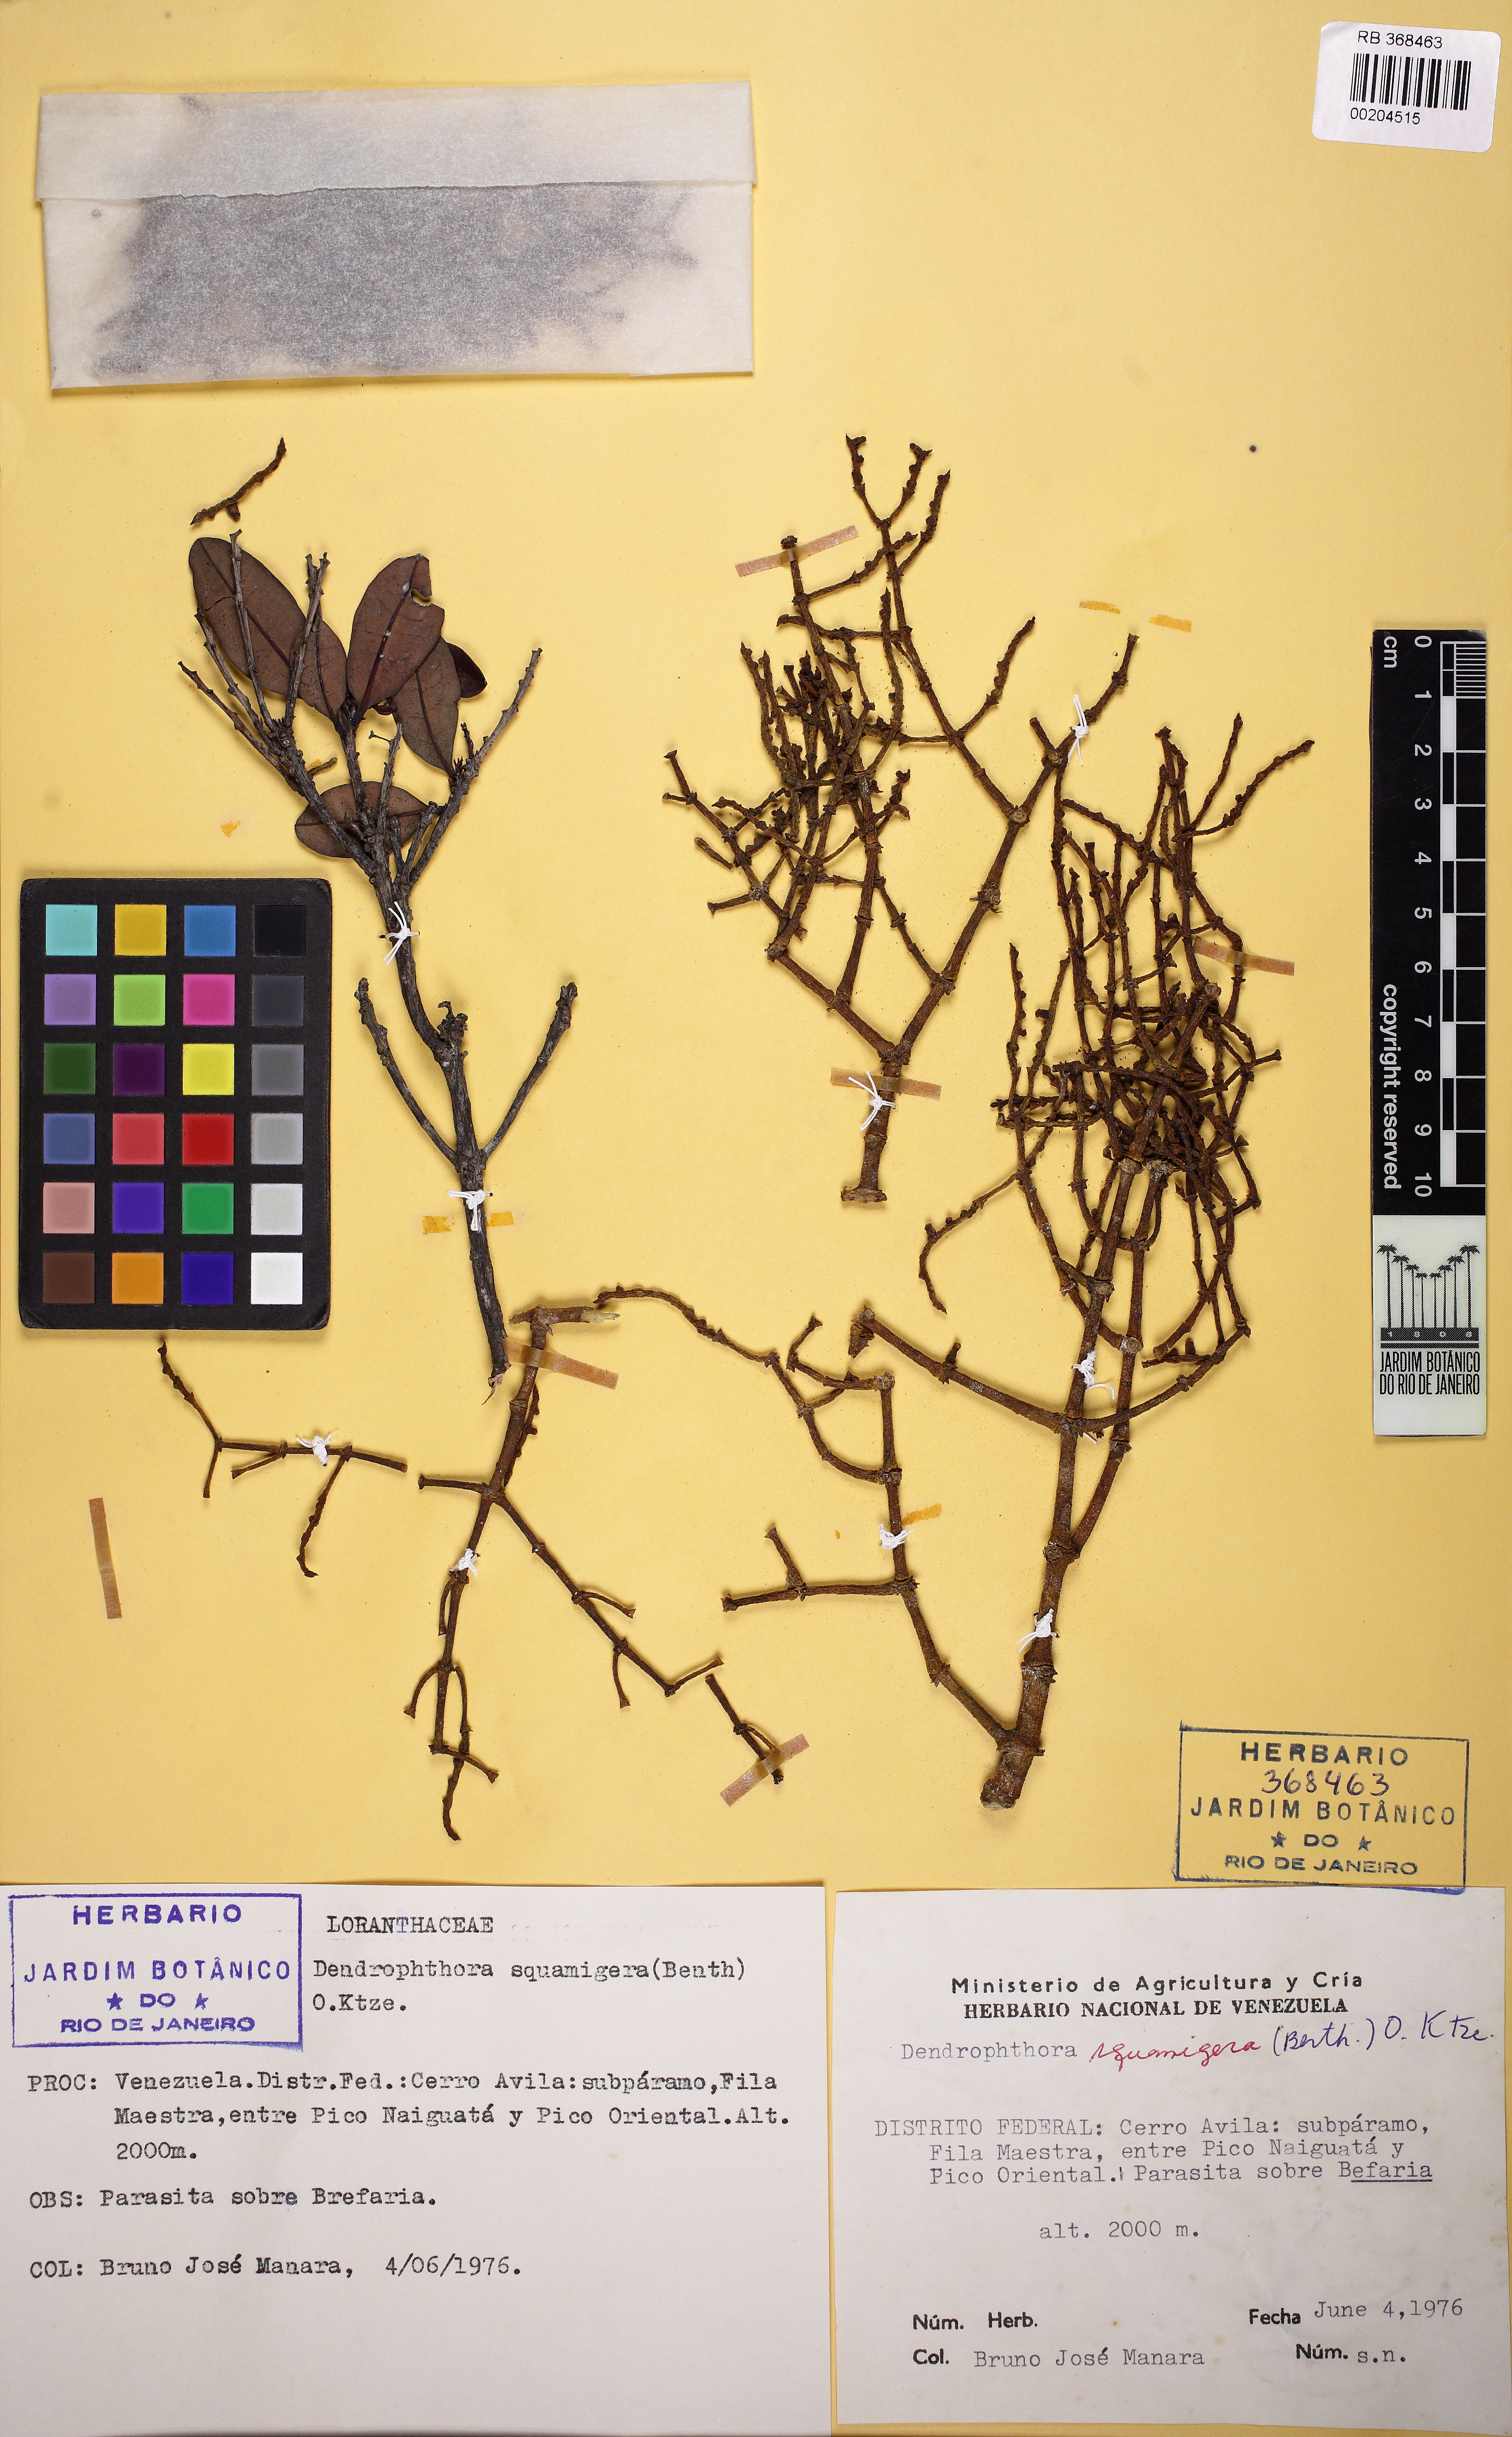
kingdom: Plantae
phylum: Tracheophyta
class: Magnoliopsida
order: Santalales
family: Viscaceae
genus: Dendrophthora
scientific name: Dendrophthora squamigera
